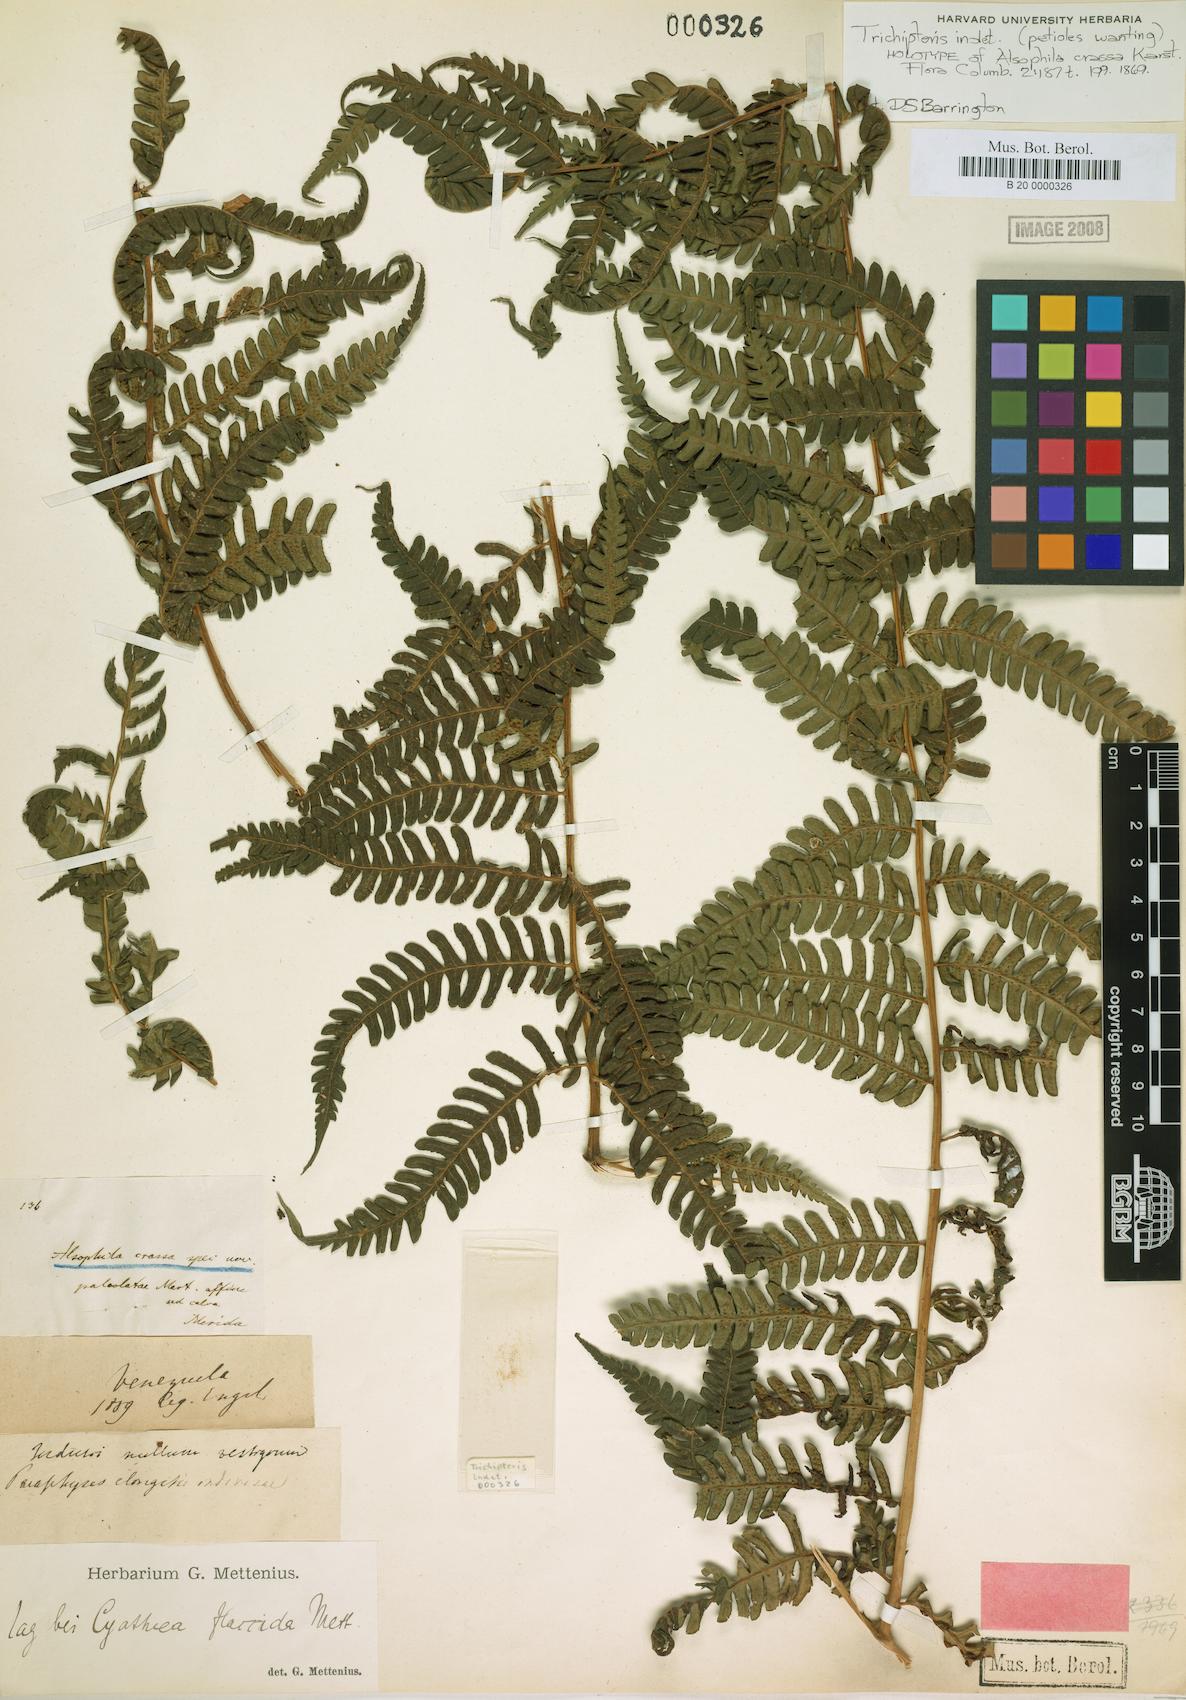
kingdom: Plantae
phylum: Tracheophyta
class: Polypodiopsida
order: Cyatheales
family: Cyatheaceae
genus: Cyathea
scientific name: Cyathea clandestina
